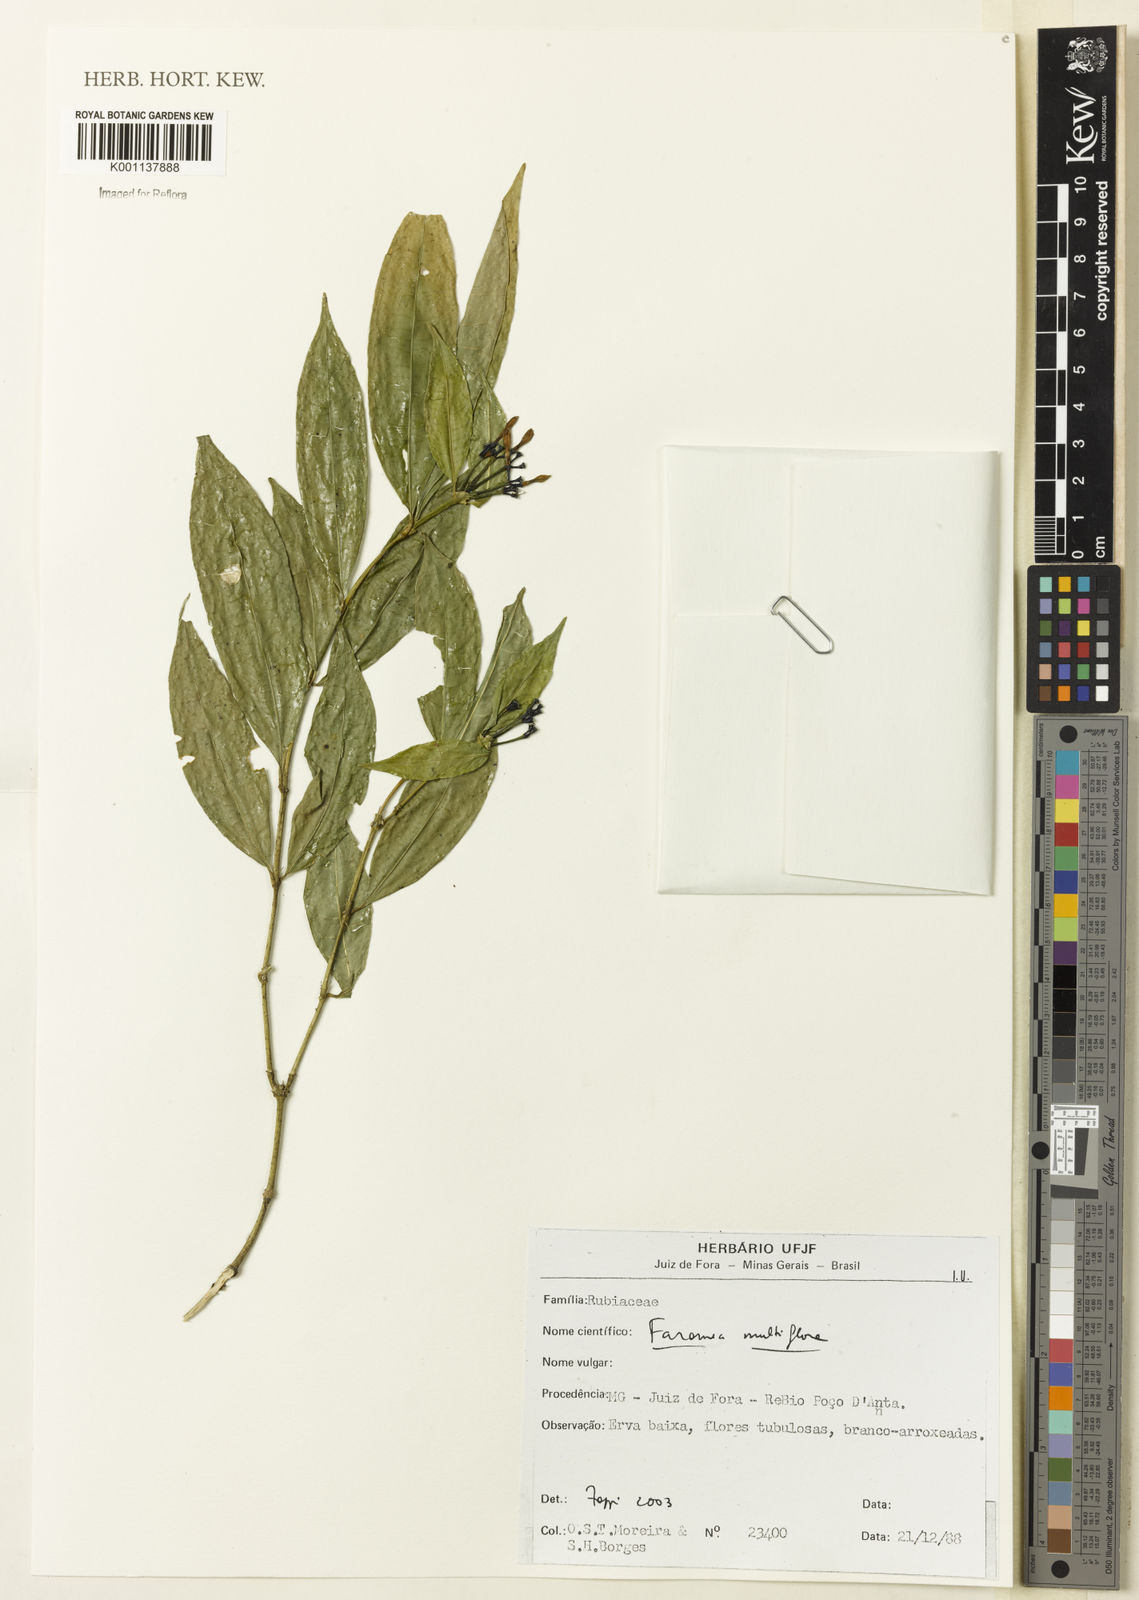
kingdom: Plantae
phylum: Tracheophyta
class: Magnoliopsida
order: Gentianales
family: Rubiaceae
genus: Faramea
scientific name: Faramea multiflora
